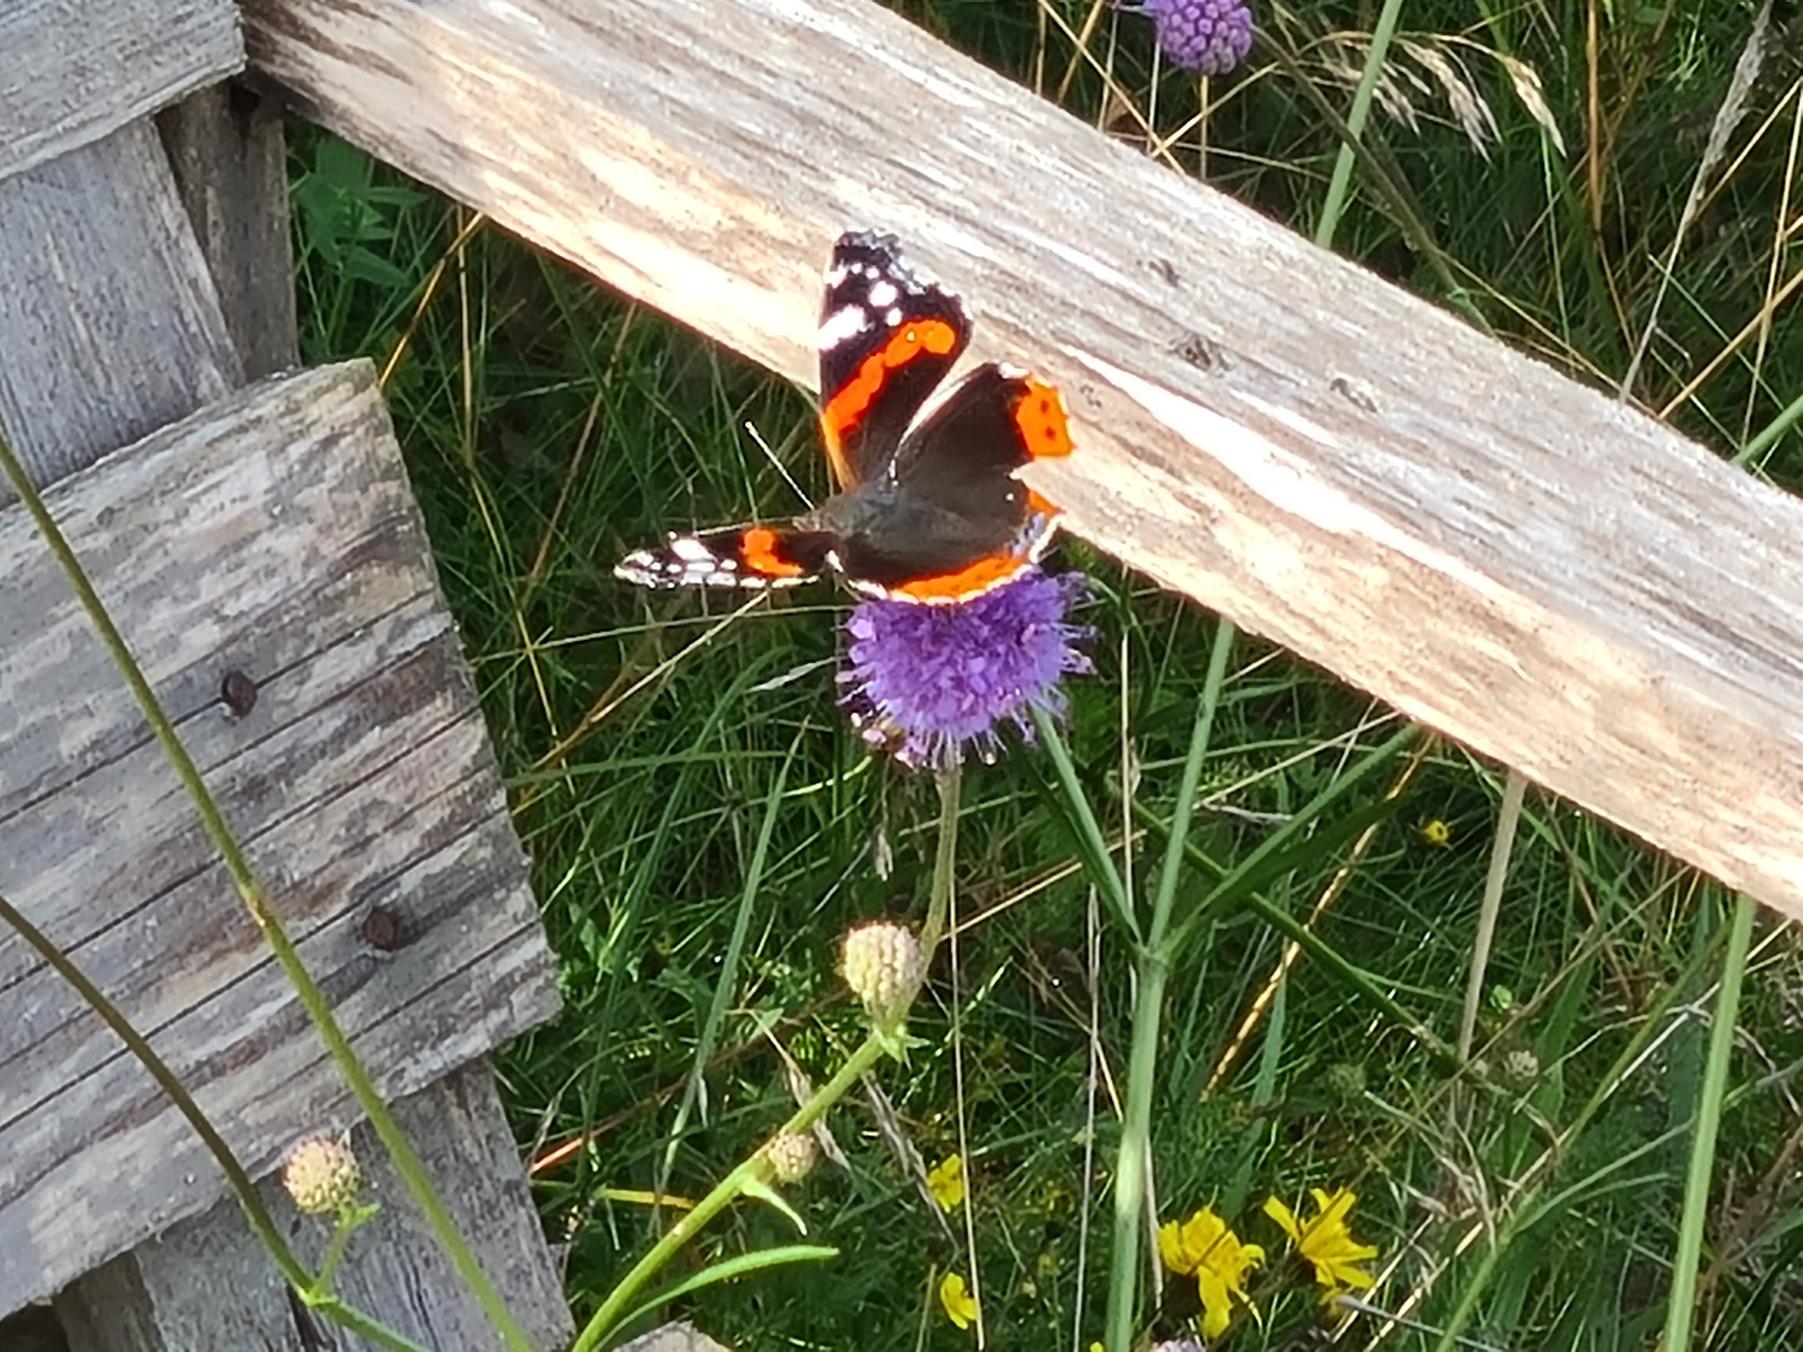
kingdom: Animalia
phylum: Arthropoda
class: Insecta
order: Lepidoptera
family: Nymphalidae
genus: Vanessa
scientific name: Vanessa atalanta
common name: Admiral
